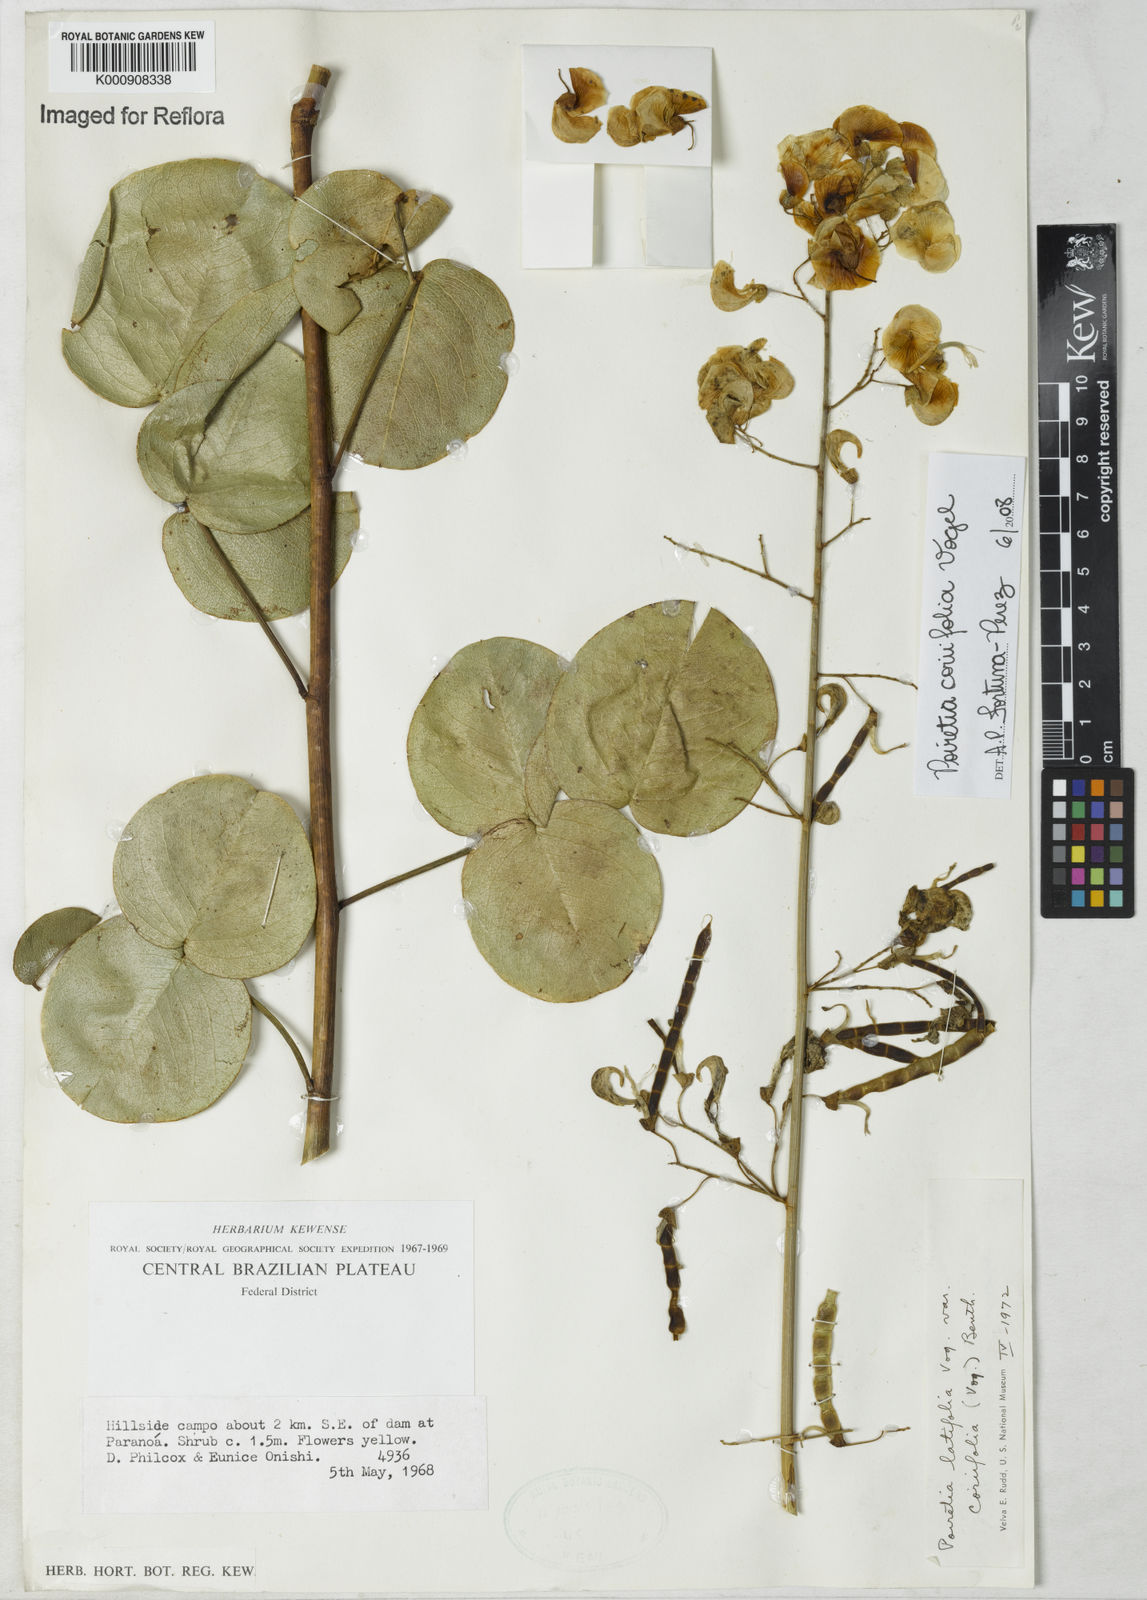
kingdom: Plantae
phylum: Tracheophyta
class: Magnoliopsida
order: Fabales
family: Fabaceae
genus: Poiretia
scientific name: Poiretia coriifolia
